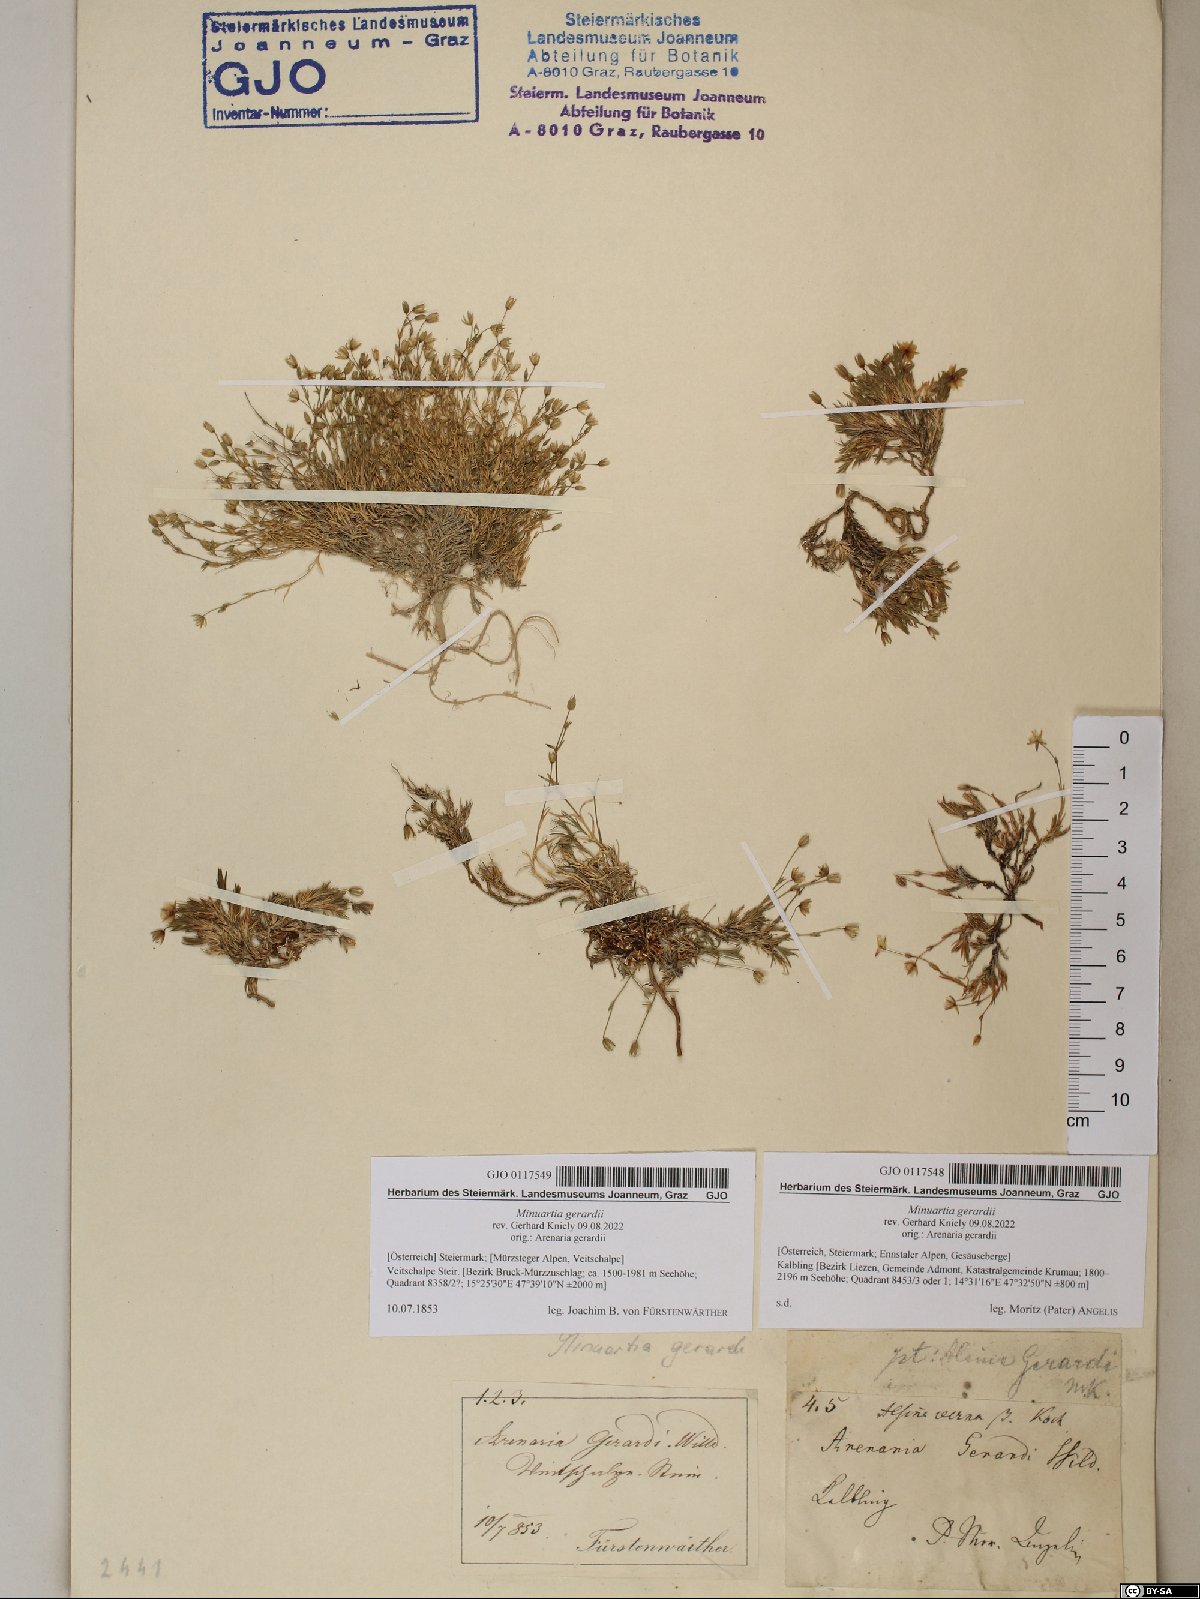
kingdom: Plantae
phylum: Tracheophyta
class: Magnoliopsida
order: Caryophyllales
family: Caryophyllaceae
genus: Sabulina
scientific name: Sabulina verna
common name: Spring sandwort
